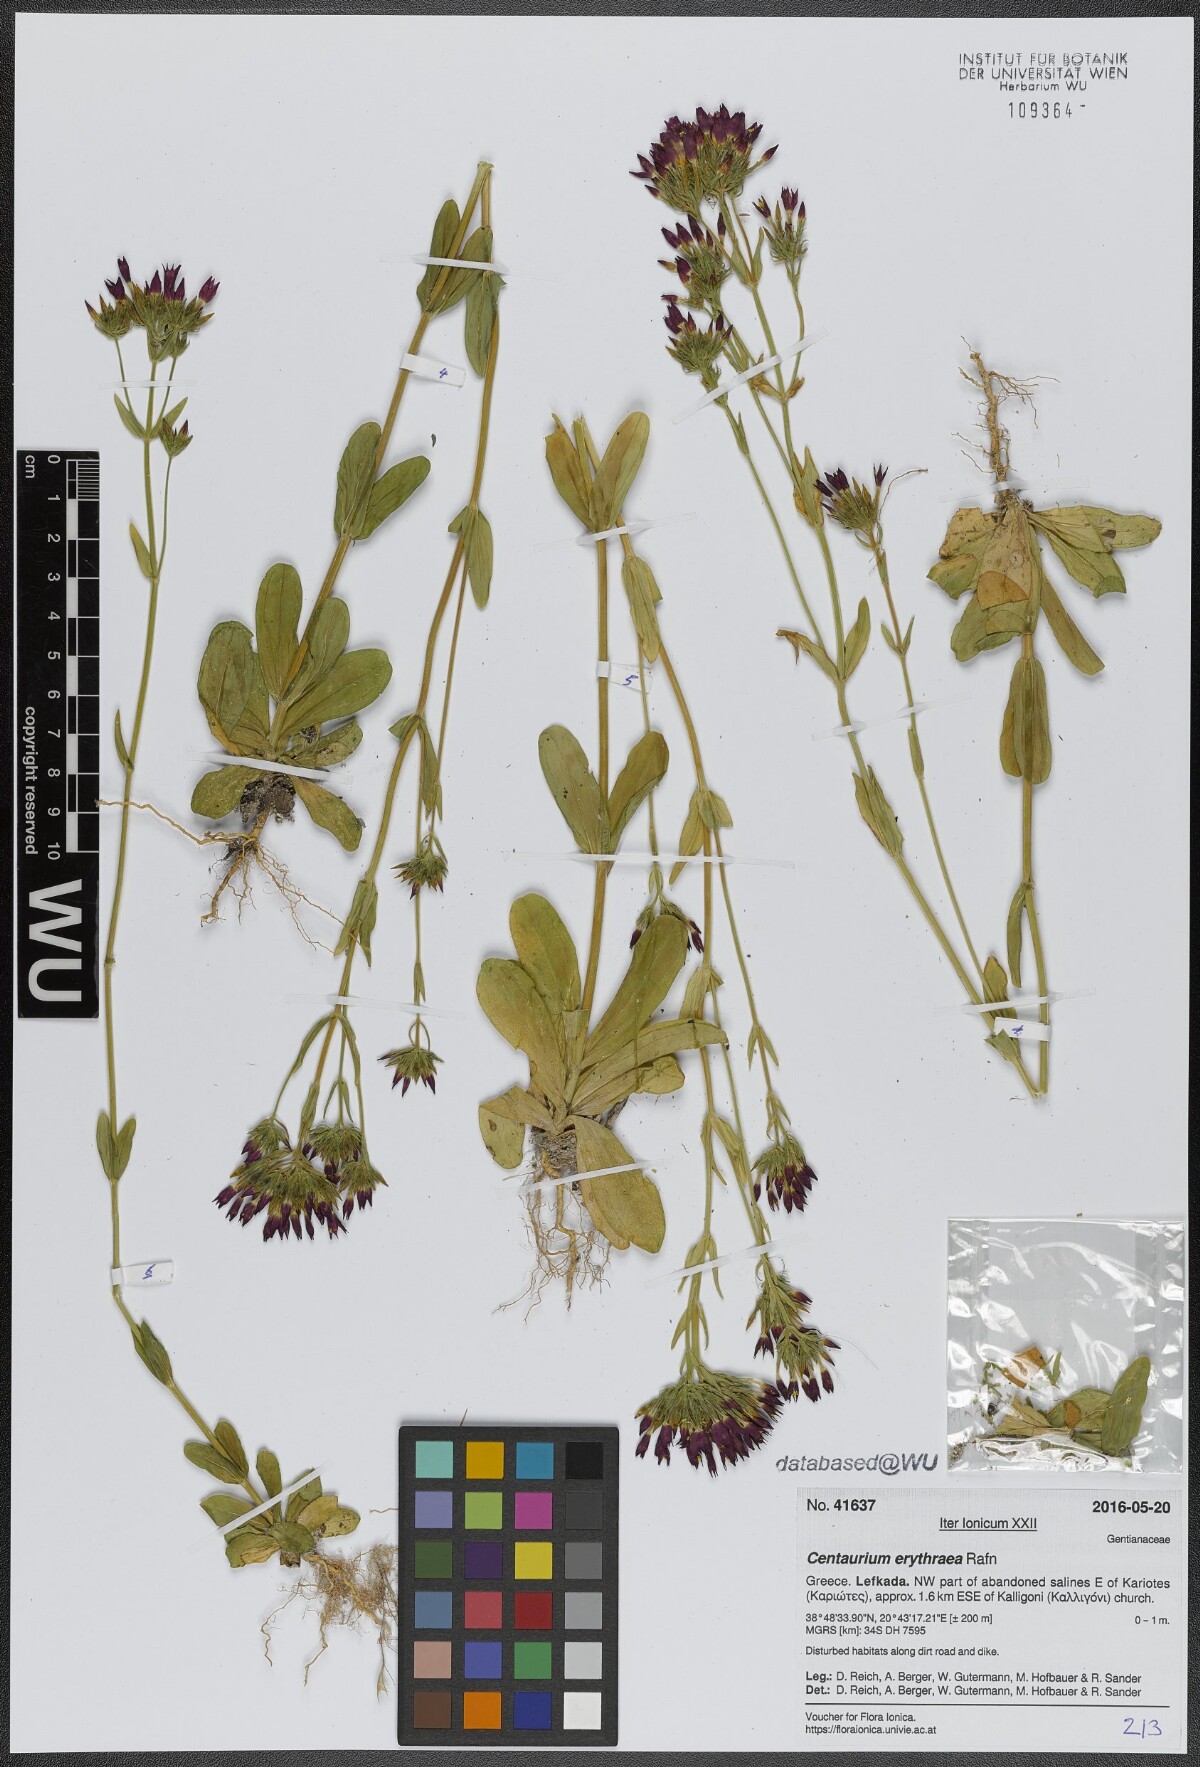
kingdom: Plantae
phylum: Tracheophyta
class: Magnoliopsida
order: Gentianales
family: Gentianaceae
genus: Centaurium
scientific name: Centaurium erythraea
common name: Common centaury
